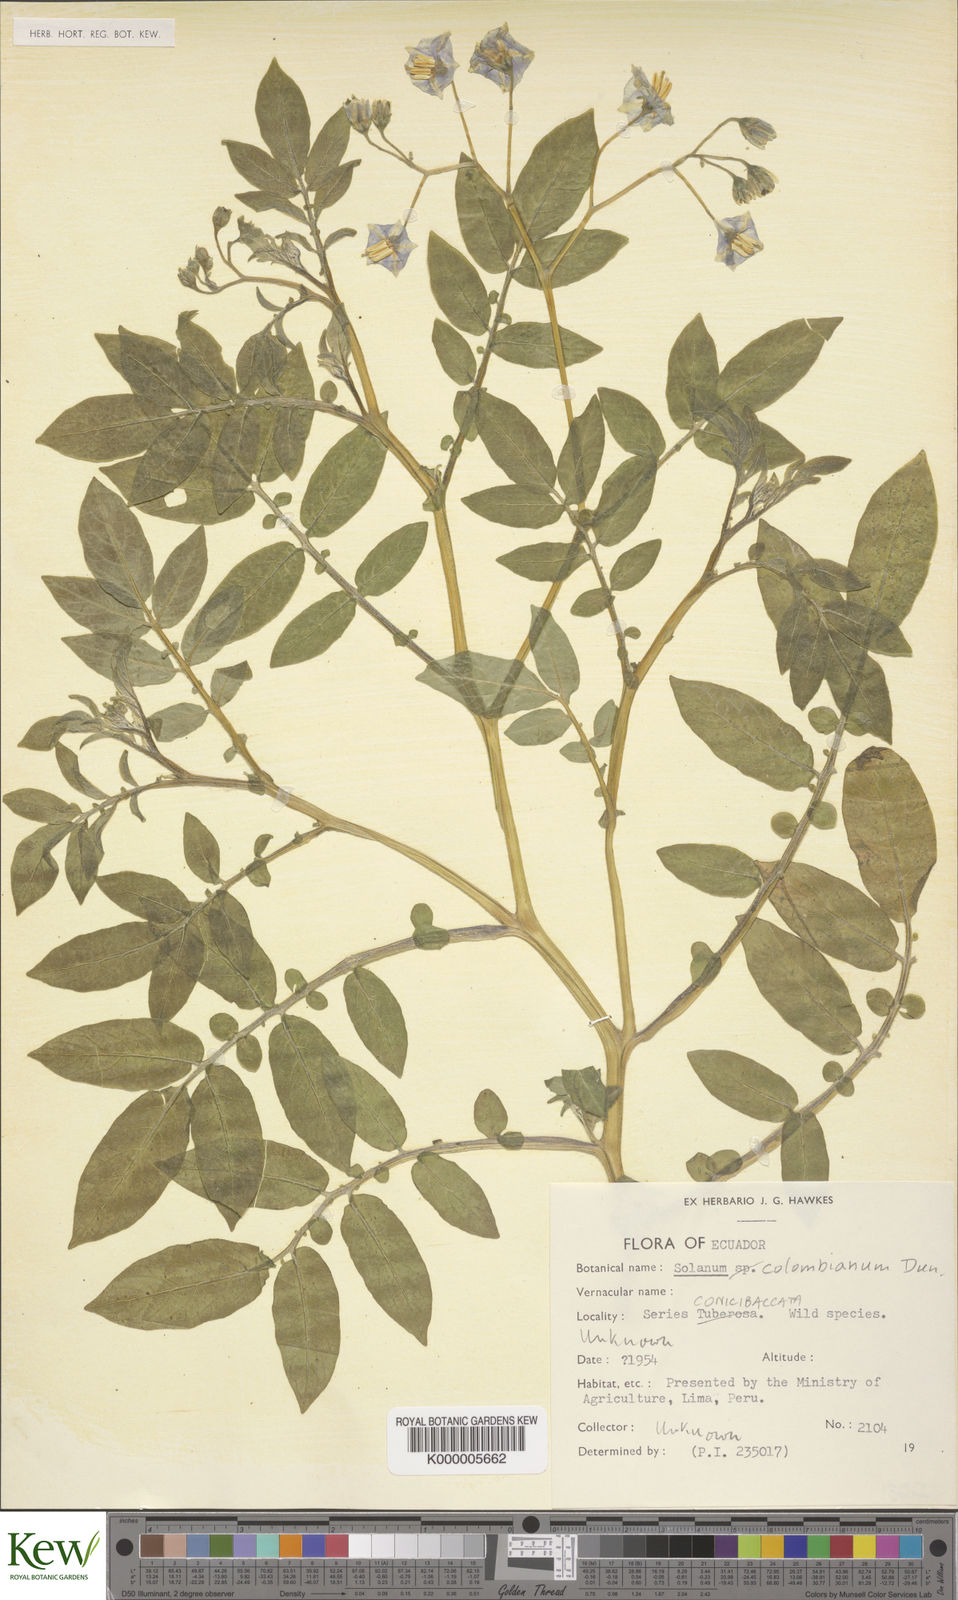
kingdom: Plantae
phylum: Tracheophyta
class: Magnoliopsida
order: Solanales
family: Solanaceae
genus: Solanum
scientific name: Solanum colombianum
